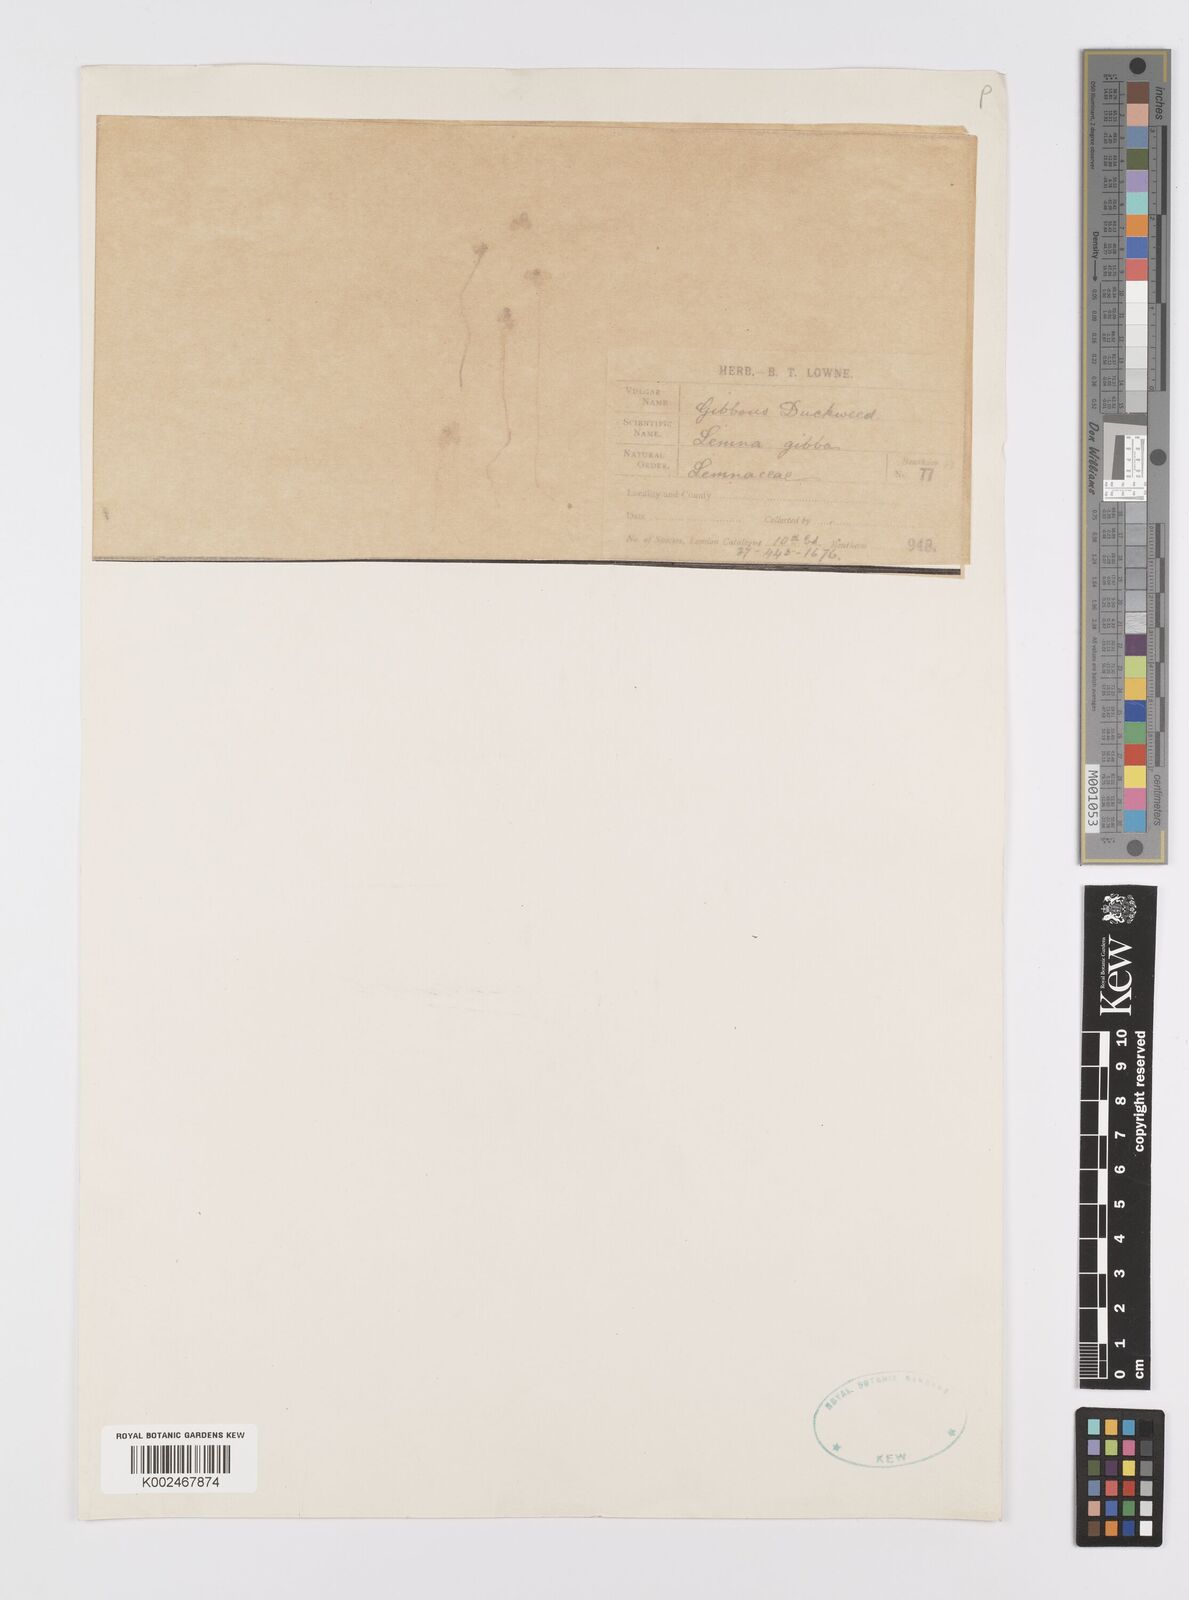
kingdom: Plantae
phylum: Tracheophyta
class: Liliopsida
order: Alismatales
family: Araceae
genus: Lemna
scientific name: Lemna gibba
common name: Fat duckweed
